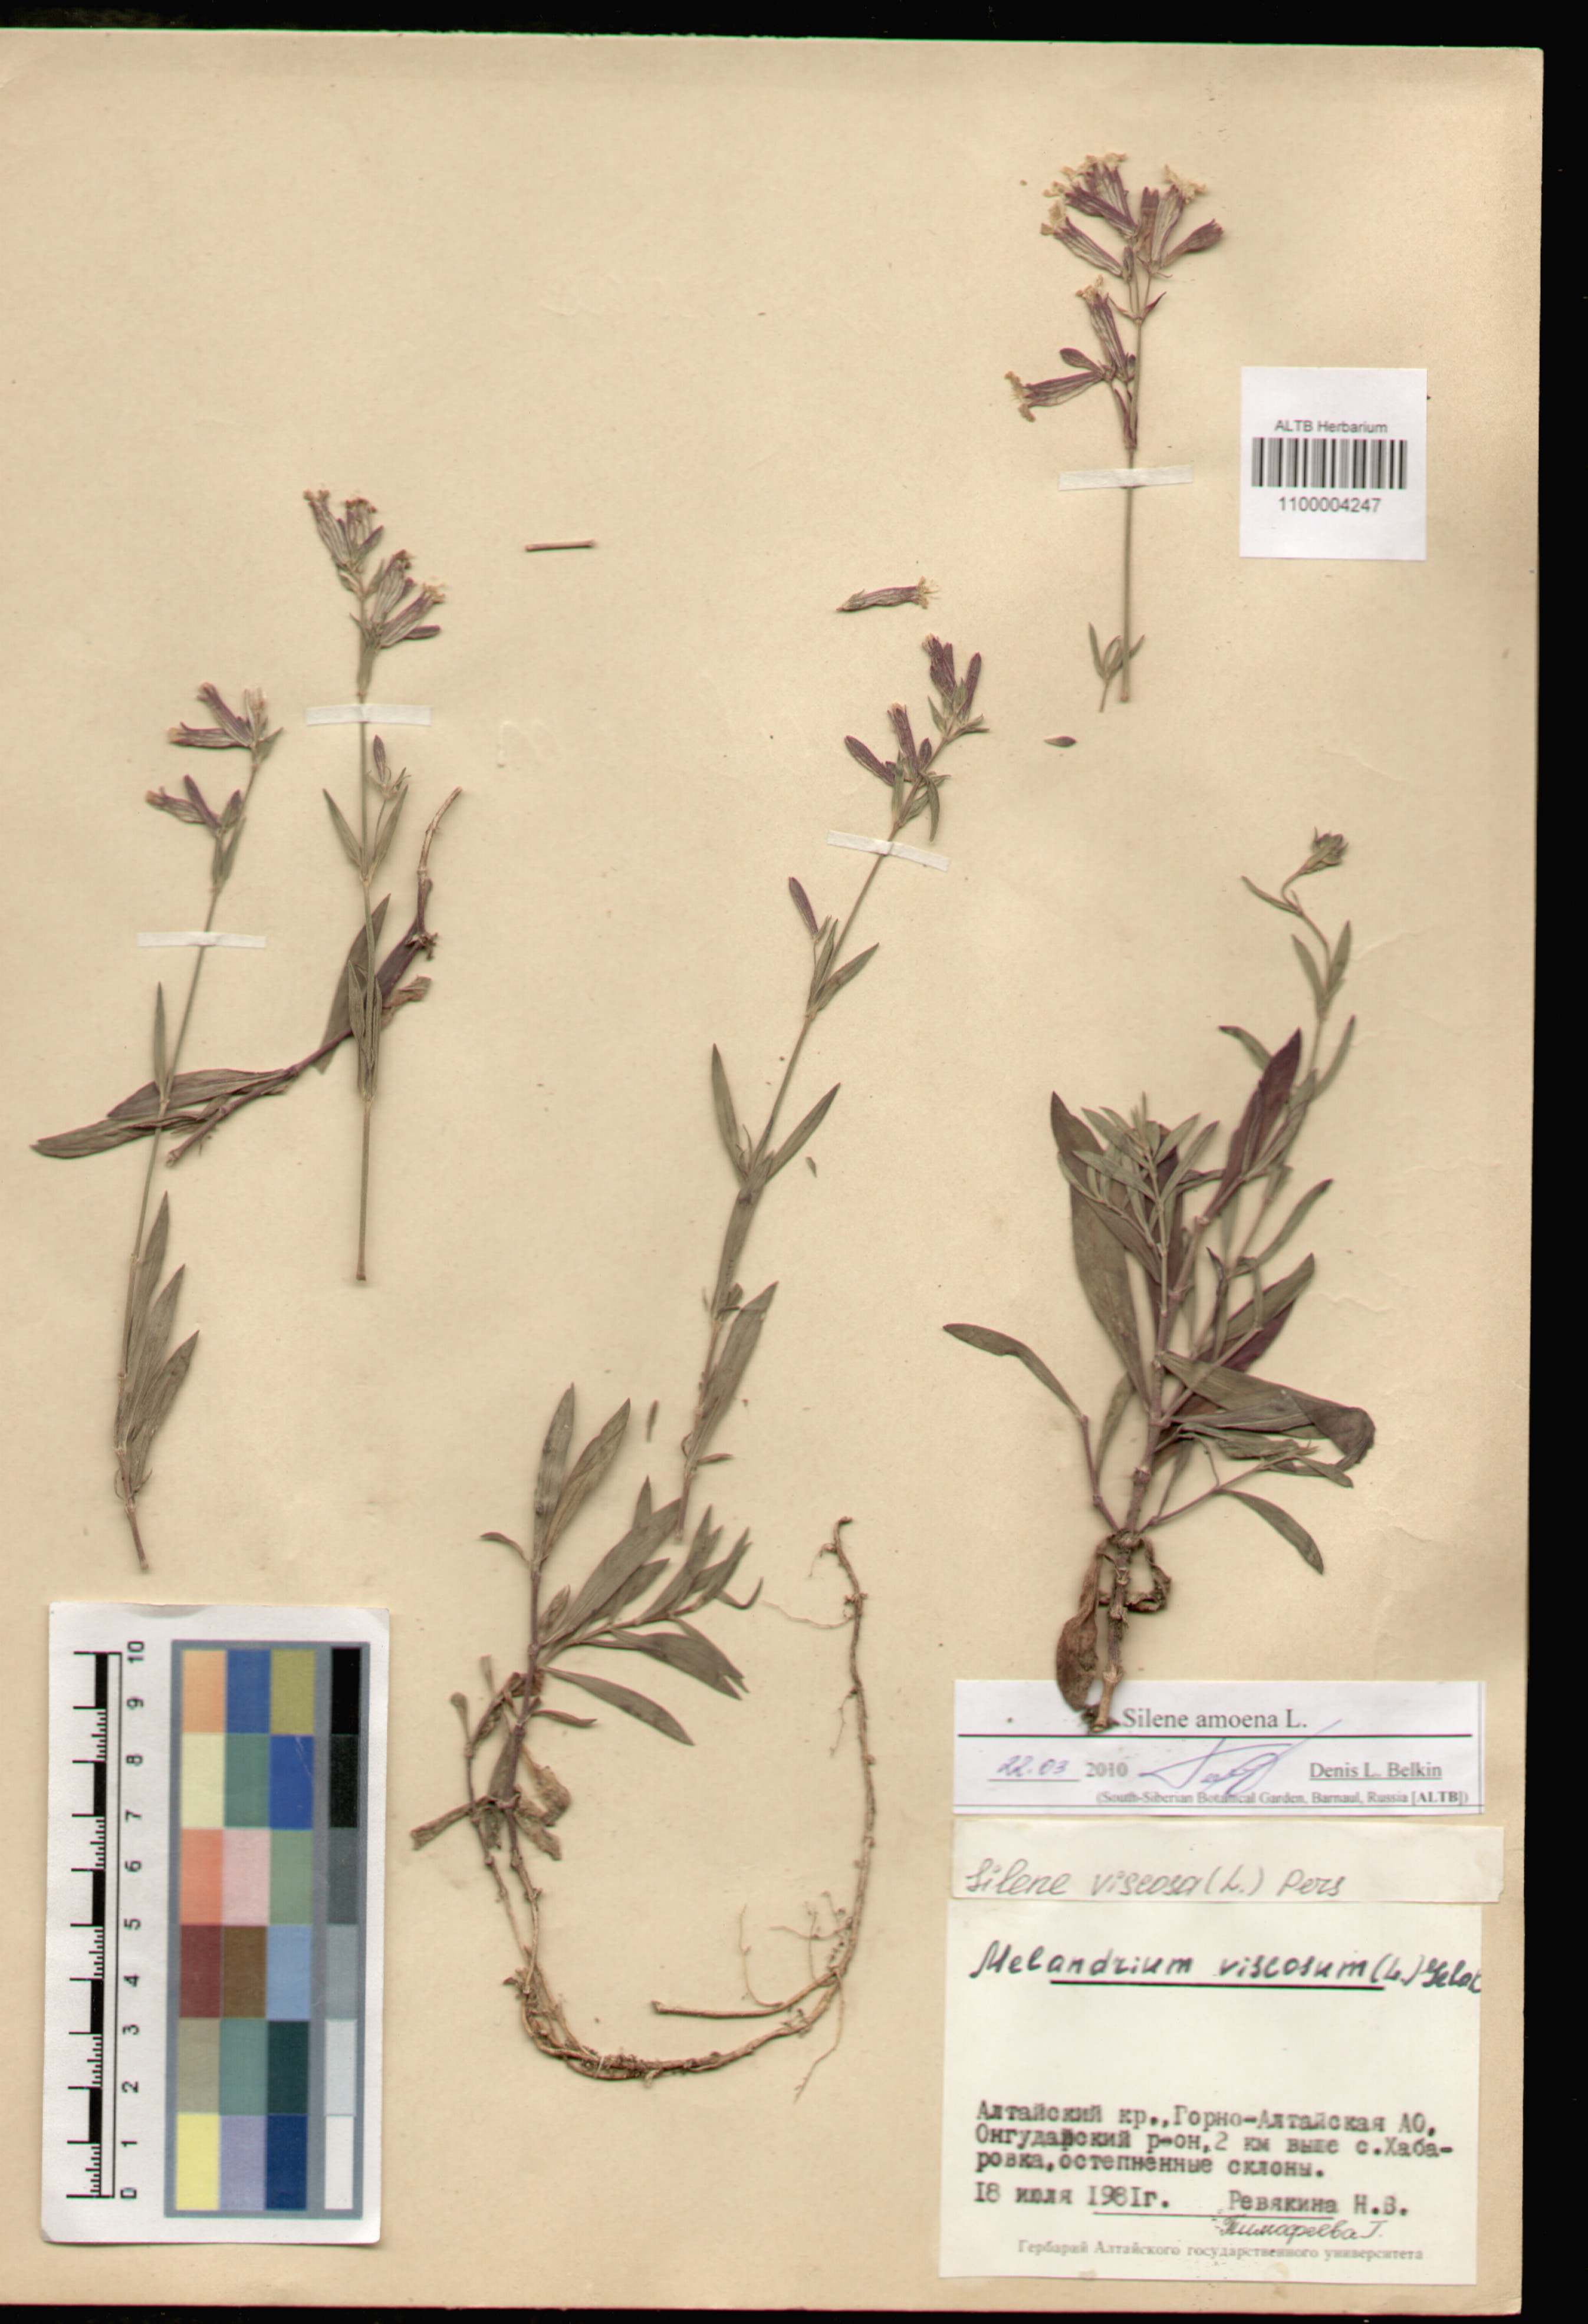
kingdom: Plantae
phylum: Tracheophyta
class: Magnoliopsida
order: Caryophyllales
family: Caryophyllaceae
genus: Silene
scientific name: Silene amoena
